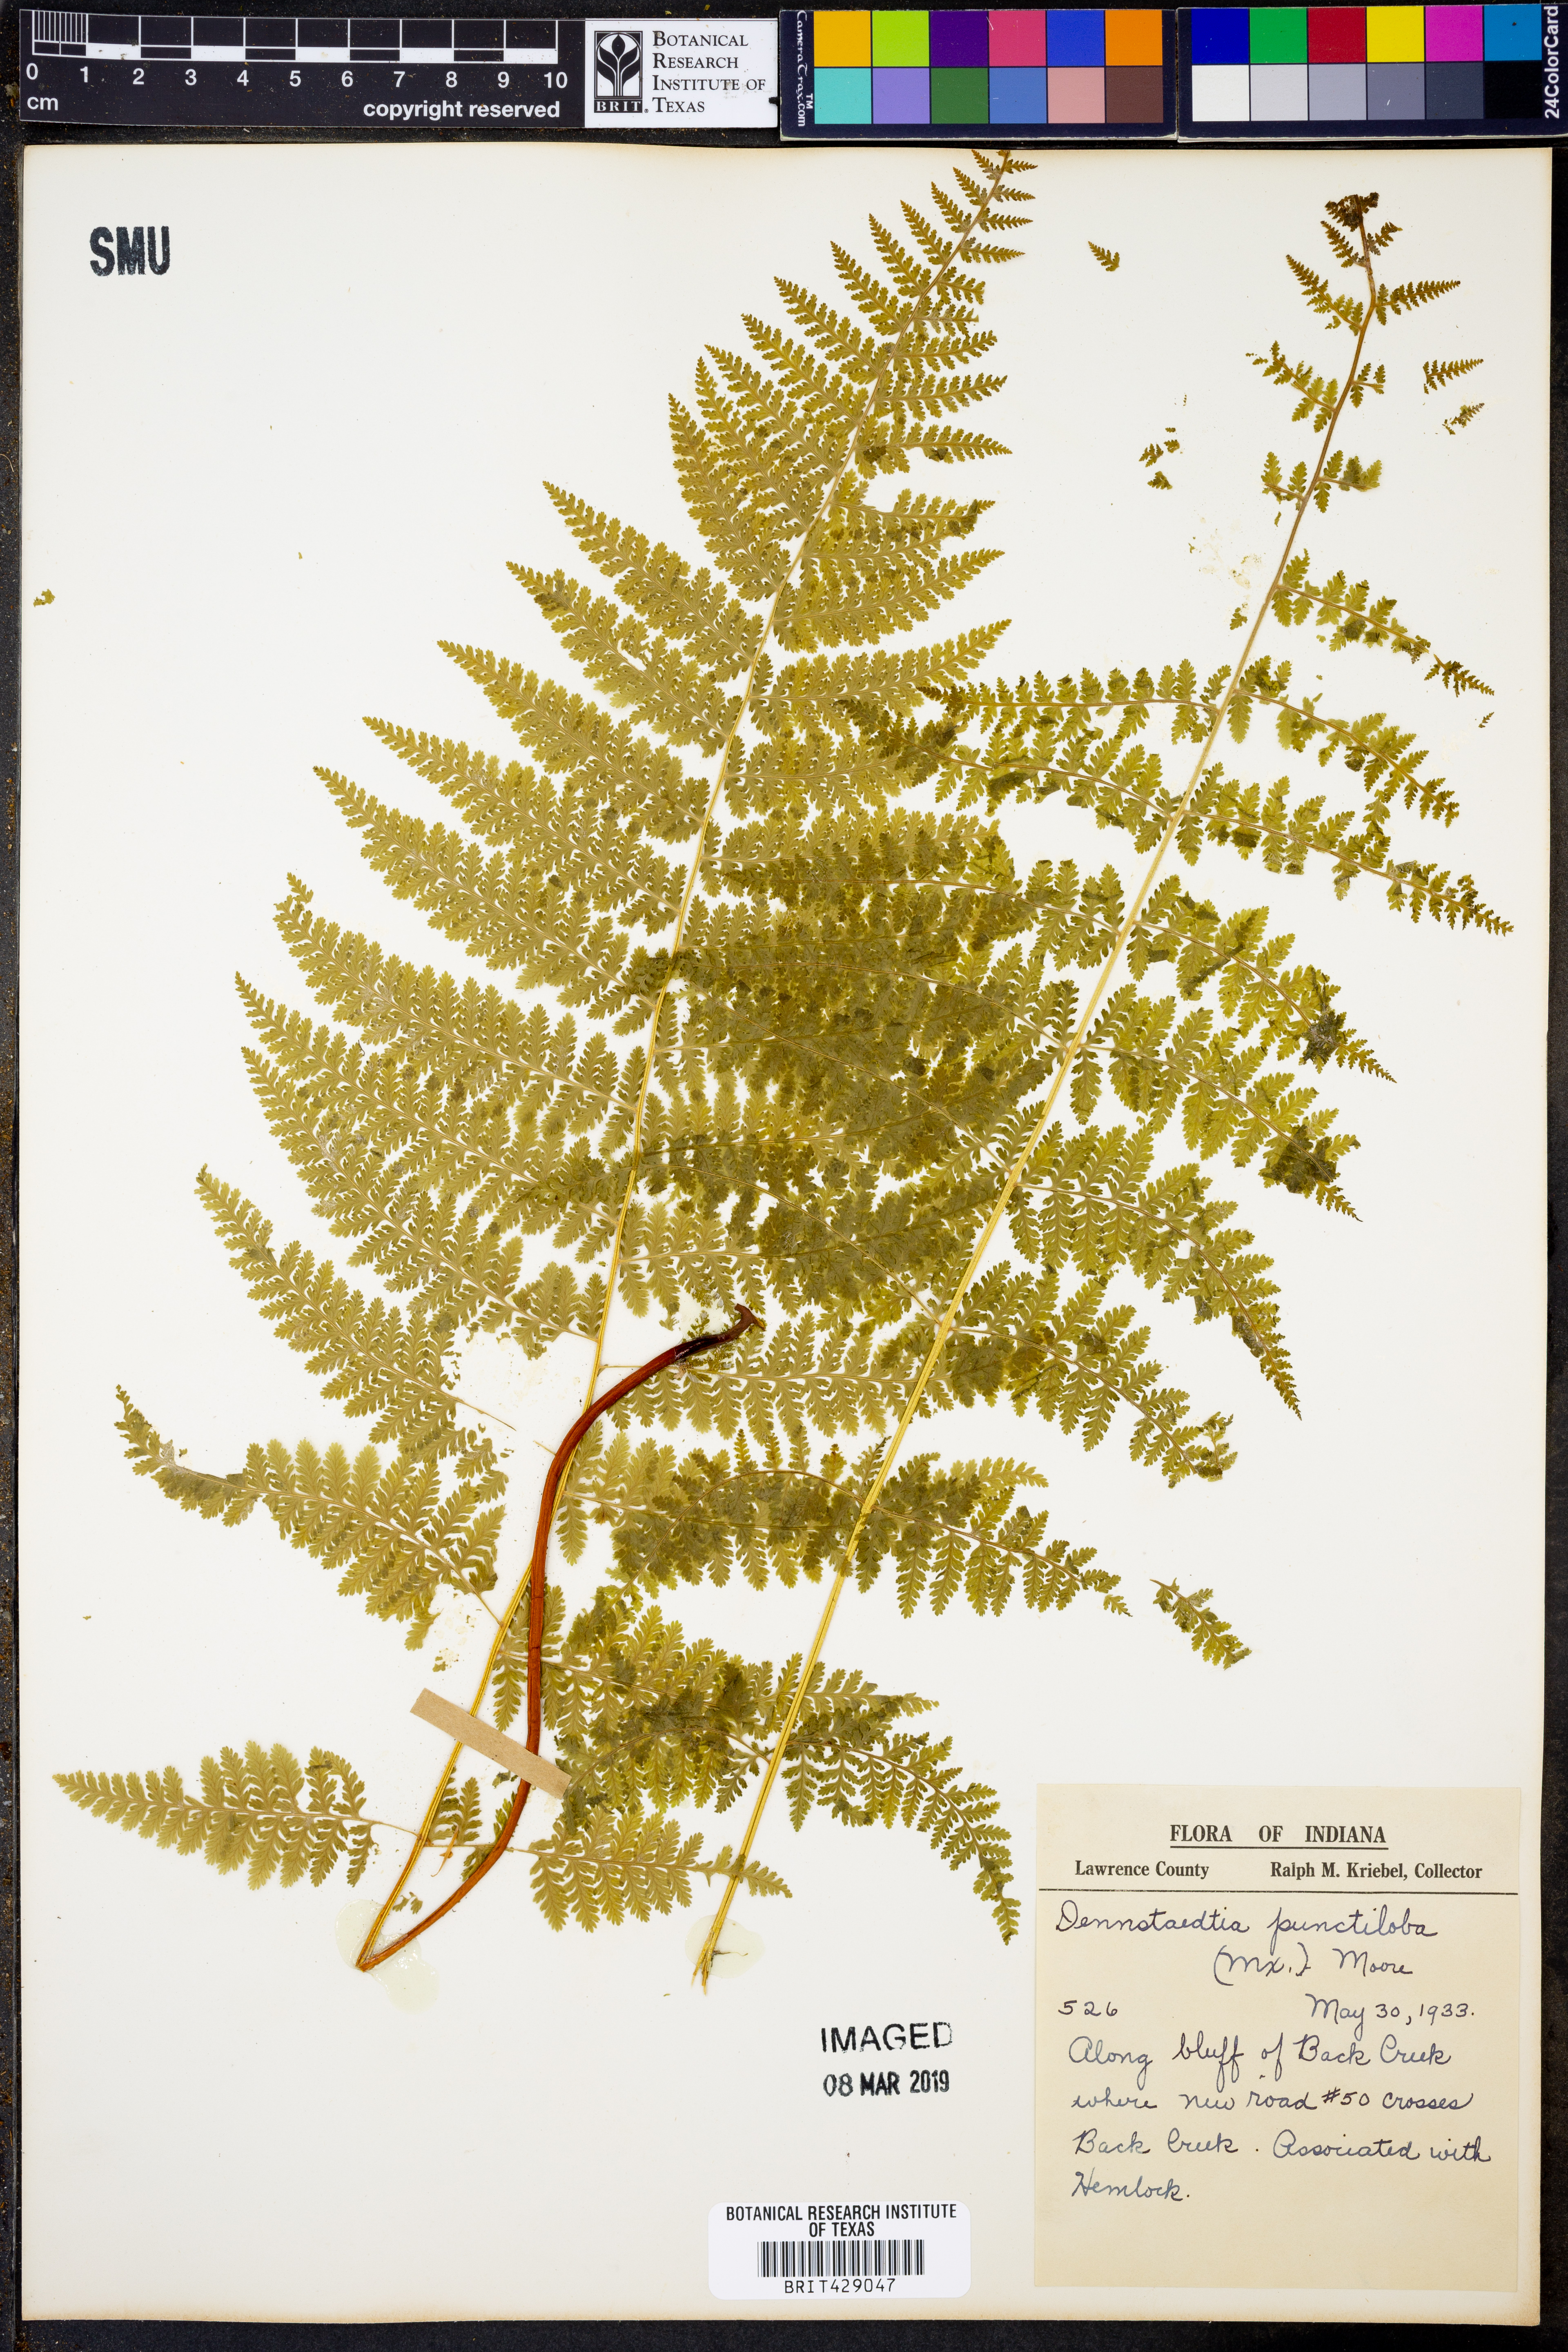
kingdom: Plantae
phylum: Tracheophyta
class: Polypodiopsida
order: Polypodiales
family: Dennstaedtiaceae
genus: Sitobolium
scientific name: Sitobolium punctilobum
